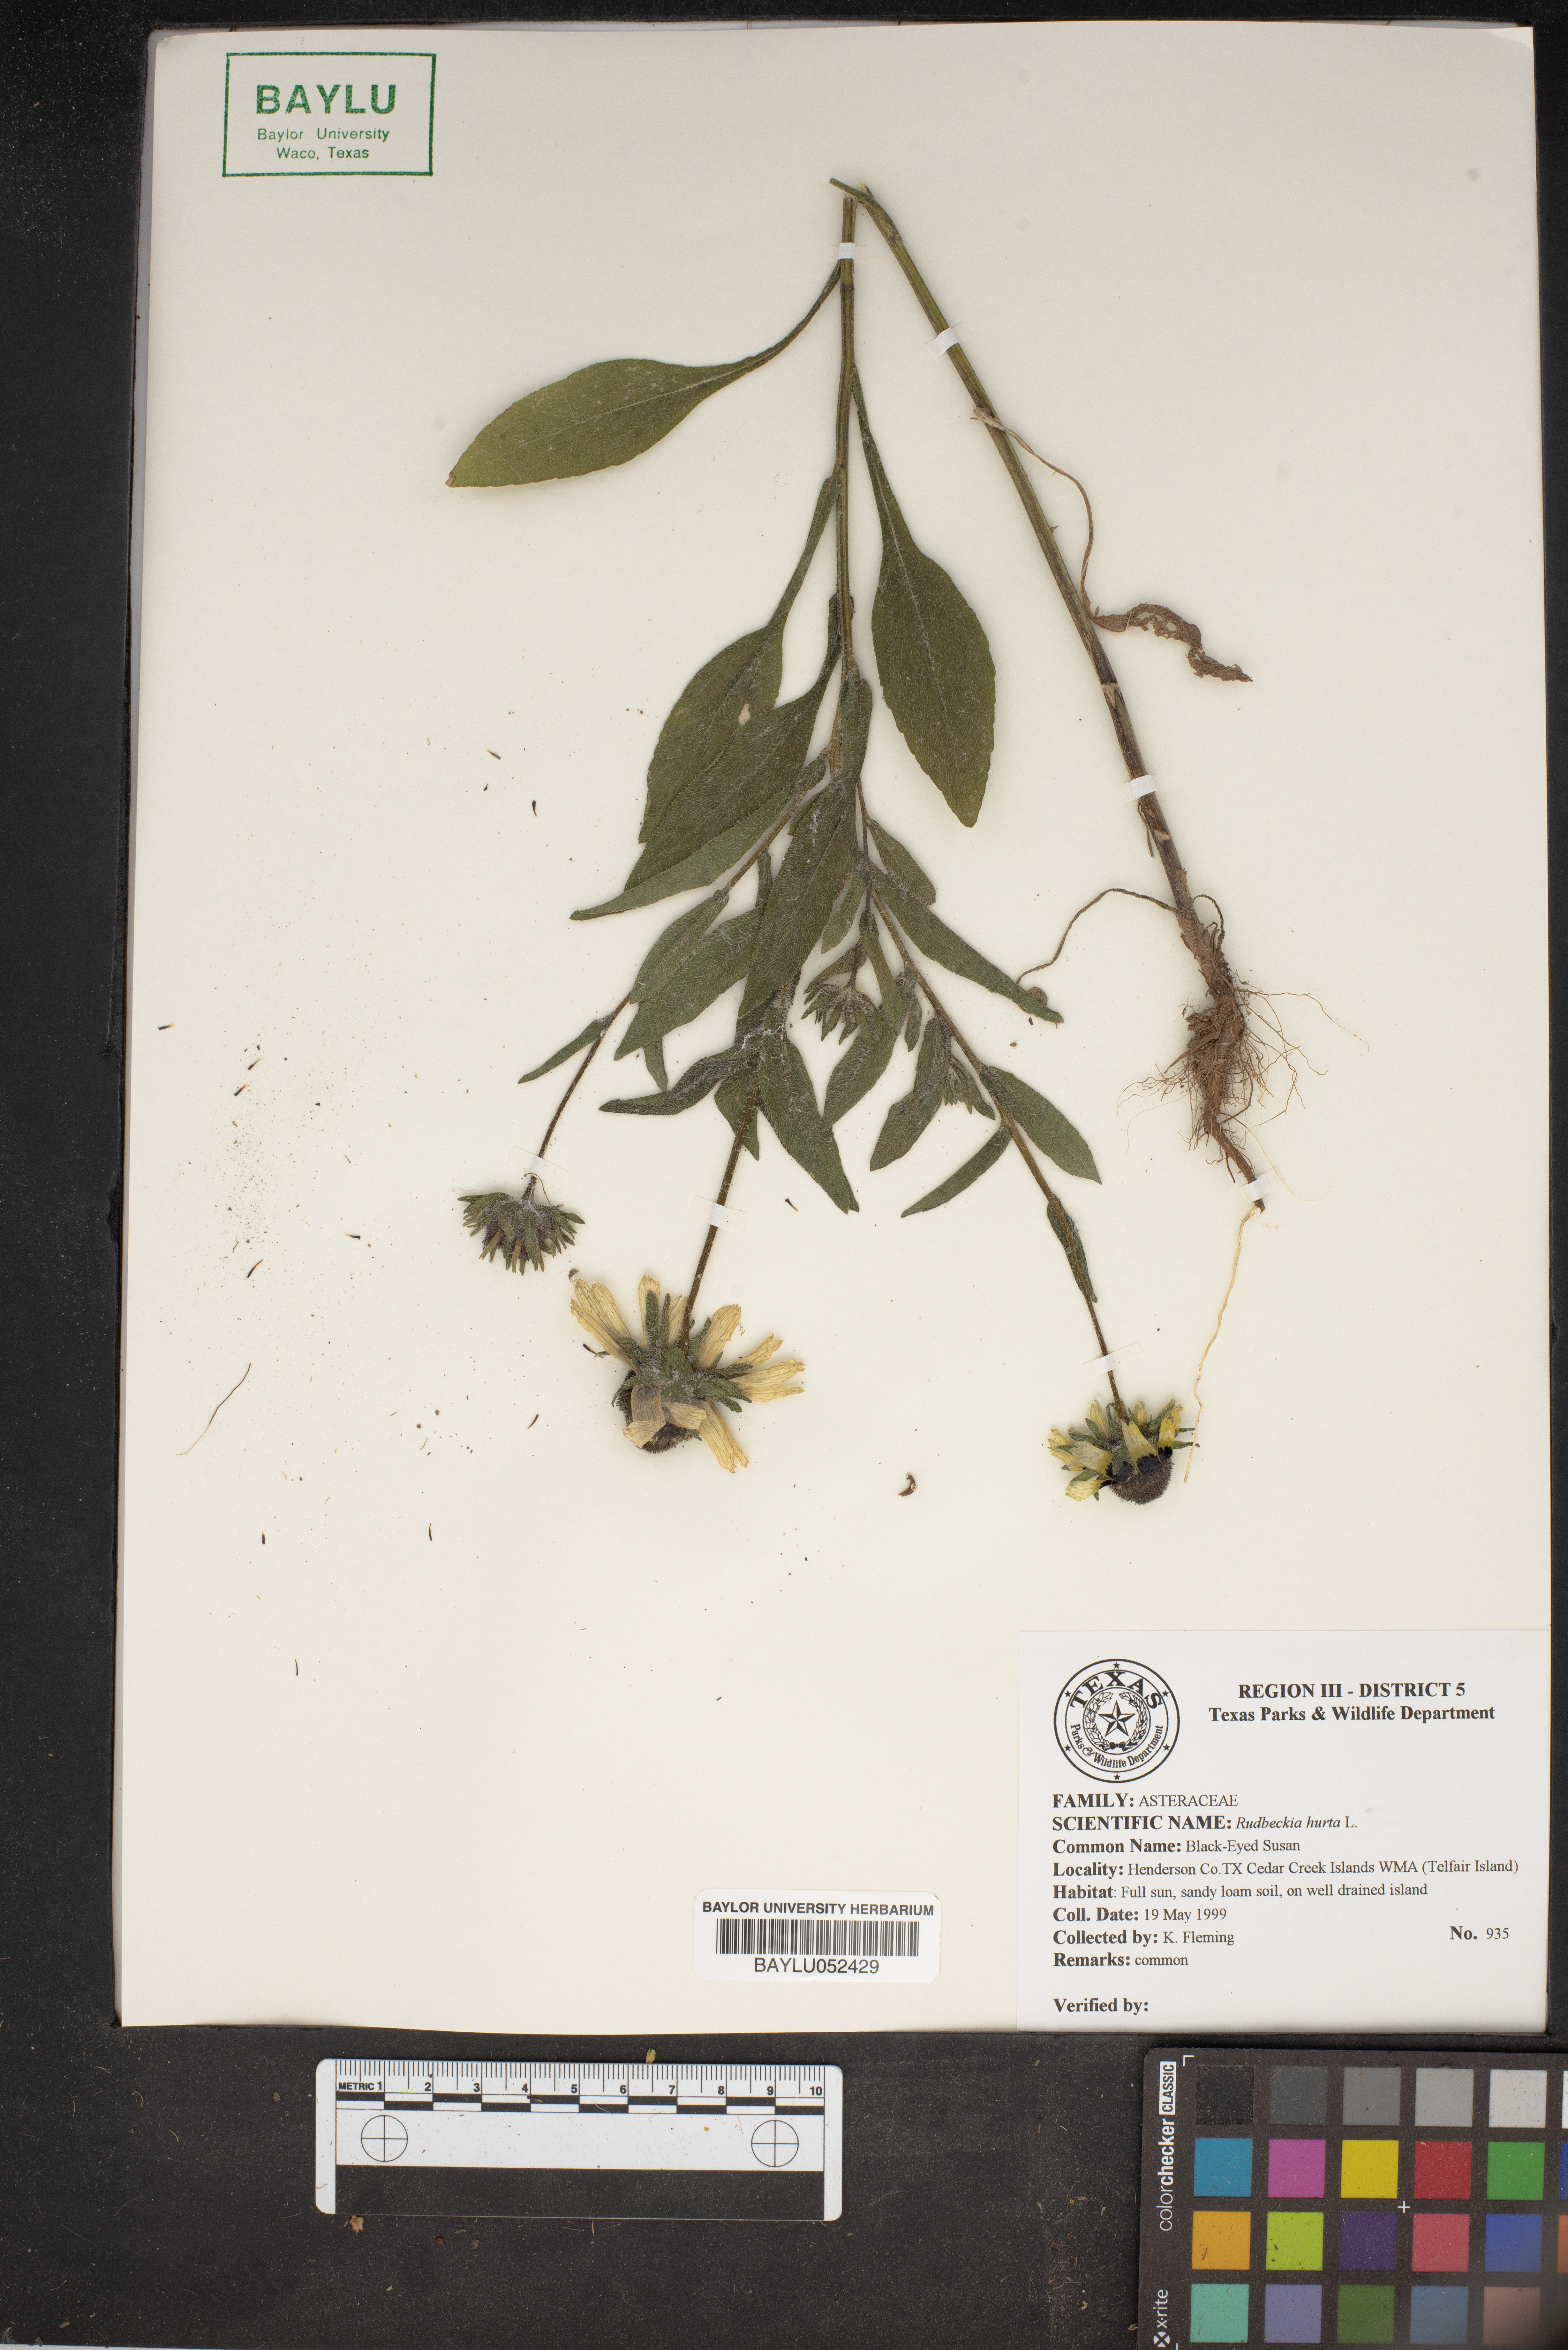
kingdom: Plantae
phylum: Tracheophyta
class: Magnoliopsida
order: Asterales
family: Asteraceae
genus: Rudbeckia
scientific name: Rudbeckia hirta
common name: Black-eyed-susan
